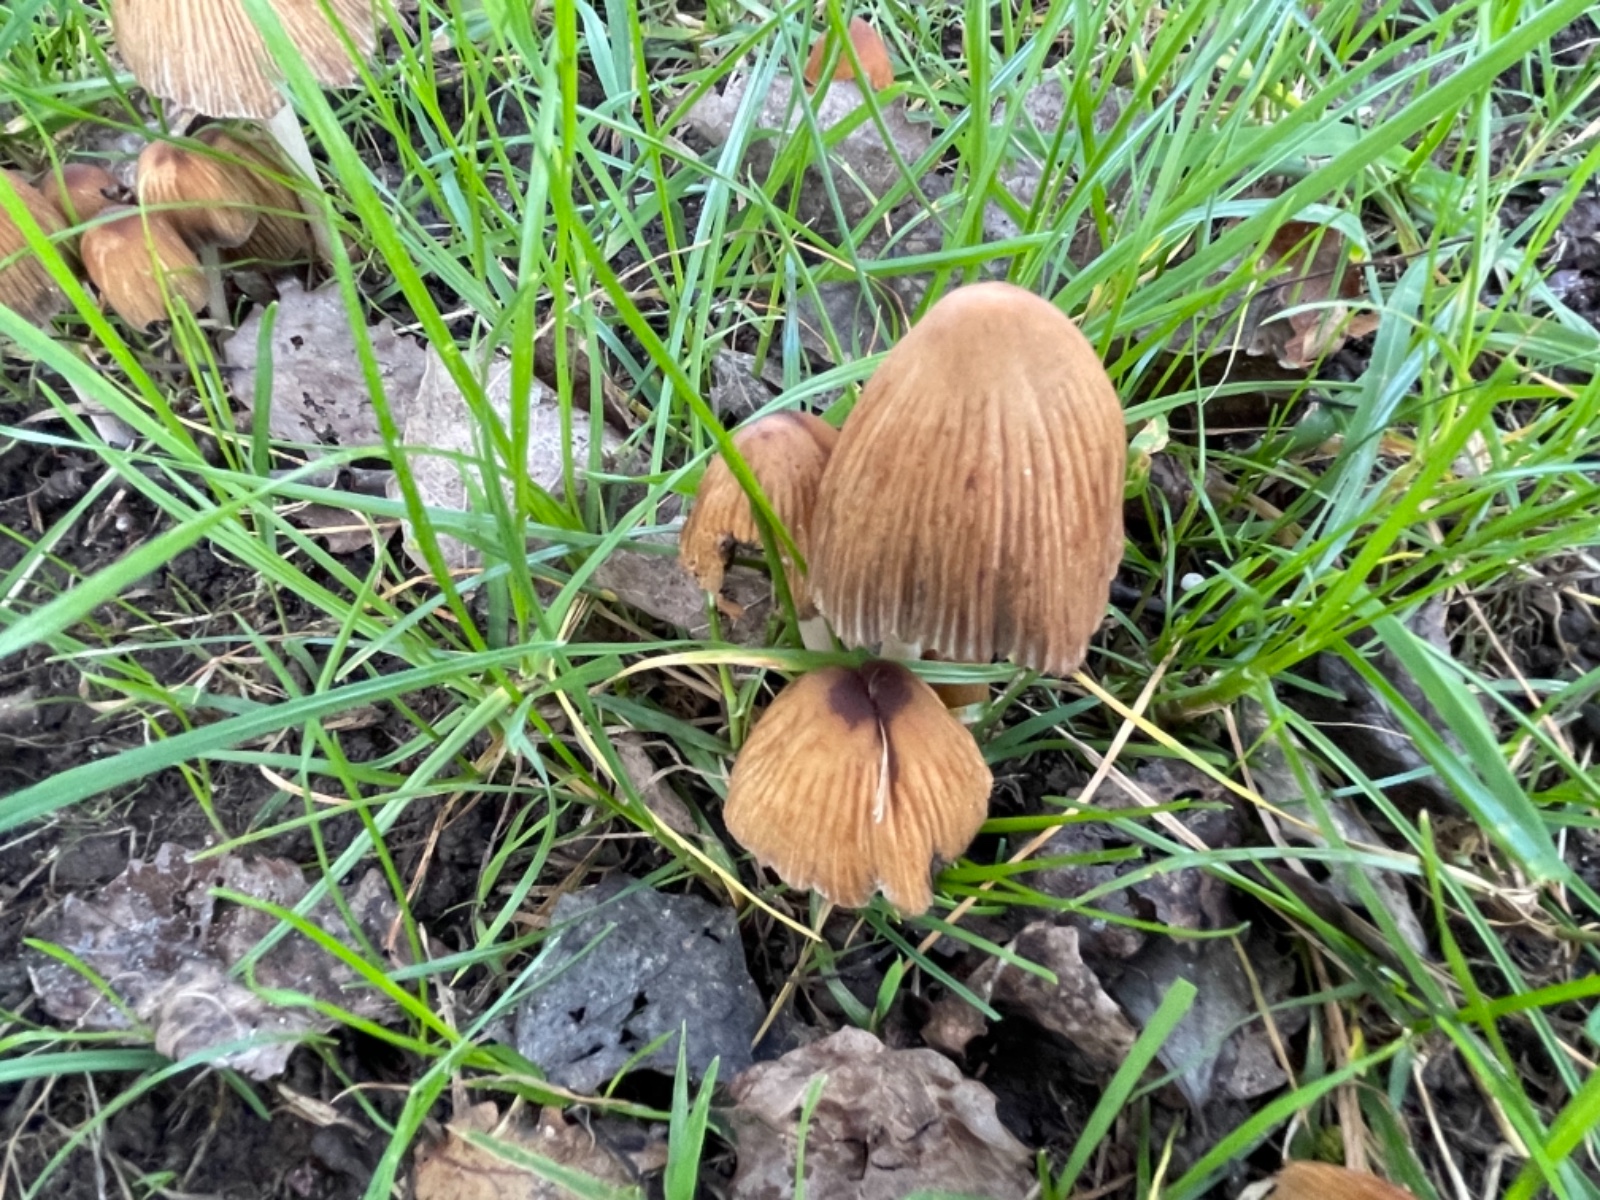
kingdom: Fungi
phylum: Basidiomycota
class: Agaricomycetes
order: Agaricales
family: Psathyrellaceae
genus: Coprinellus
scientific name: Coprinellus
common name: blækhat
